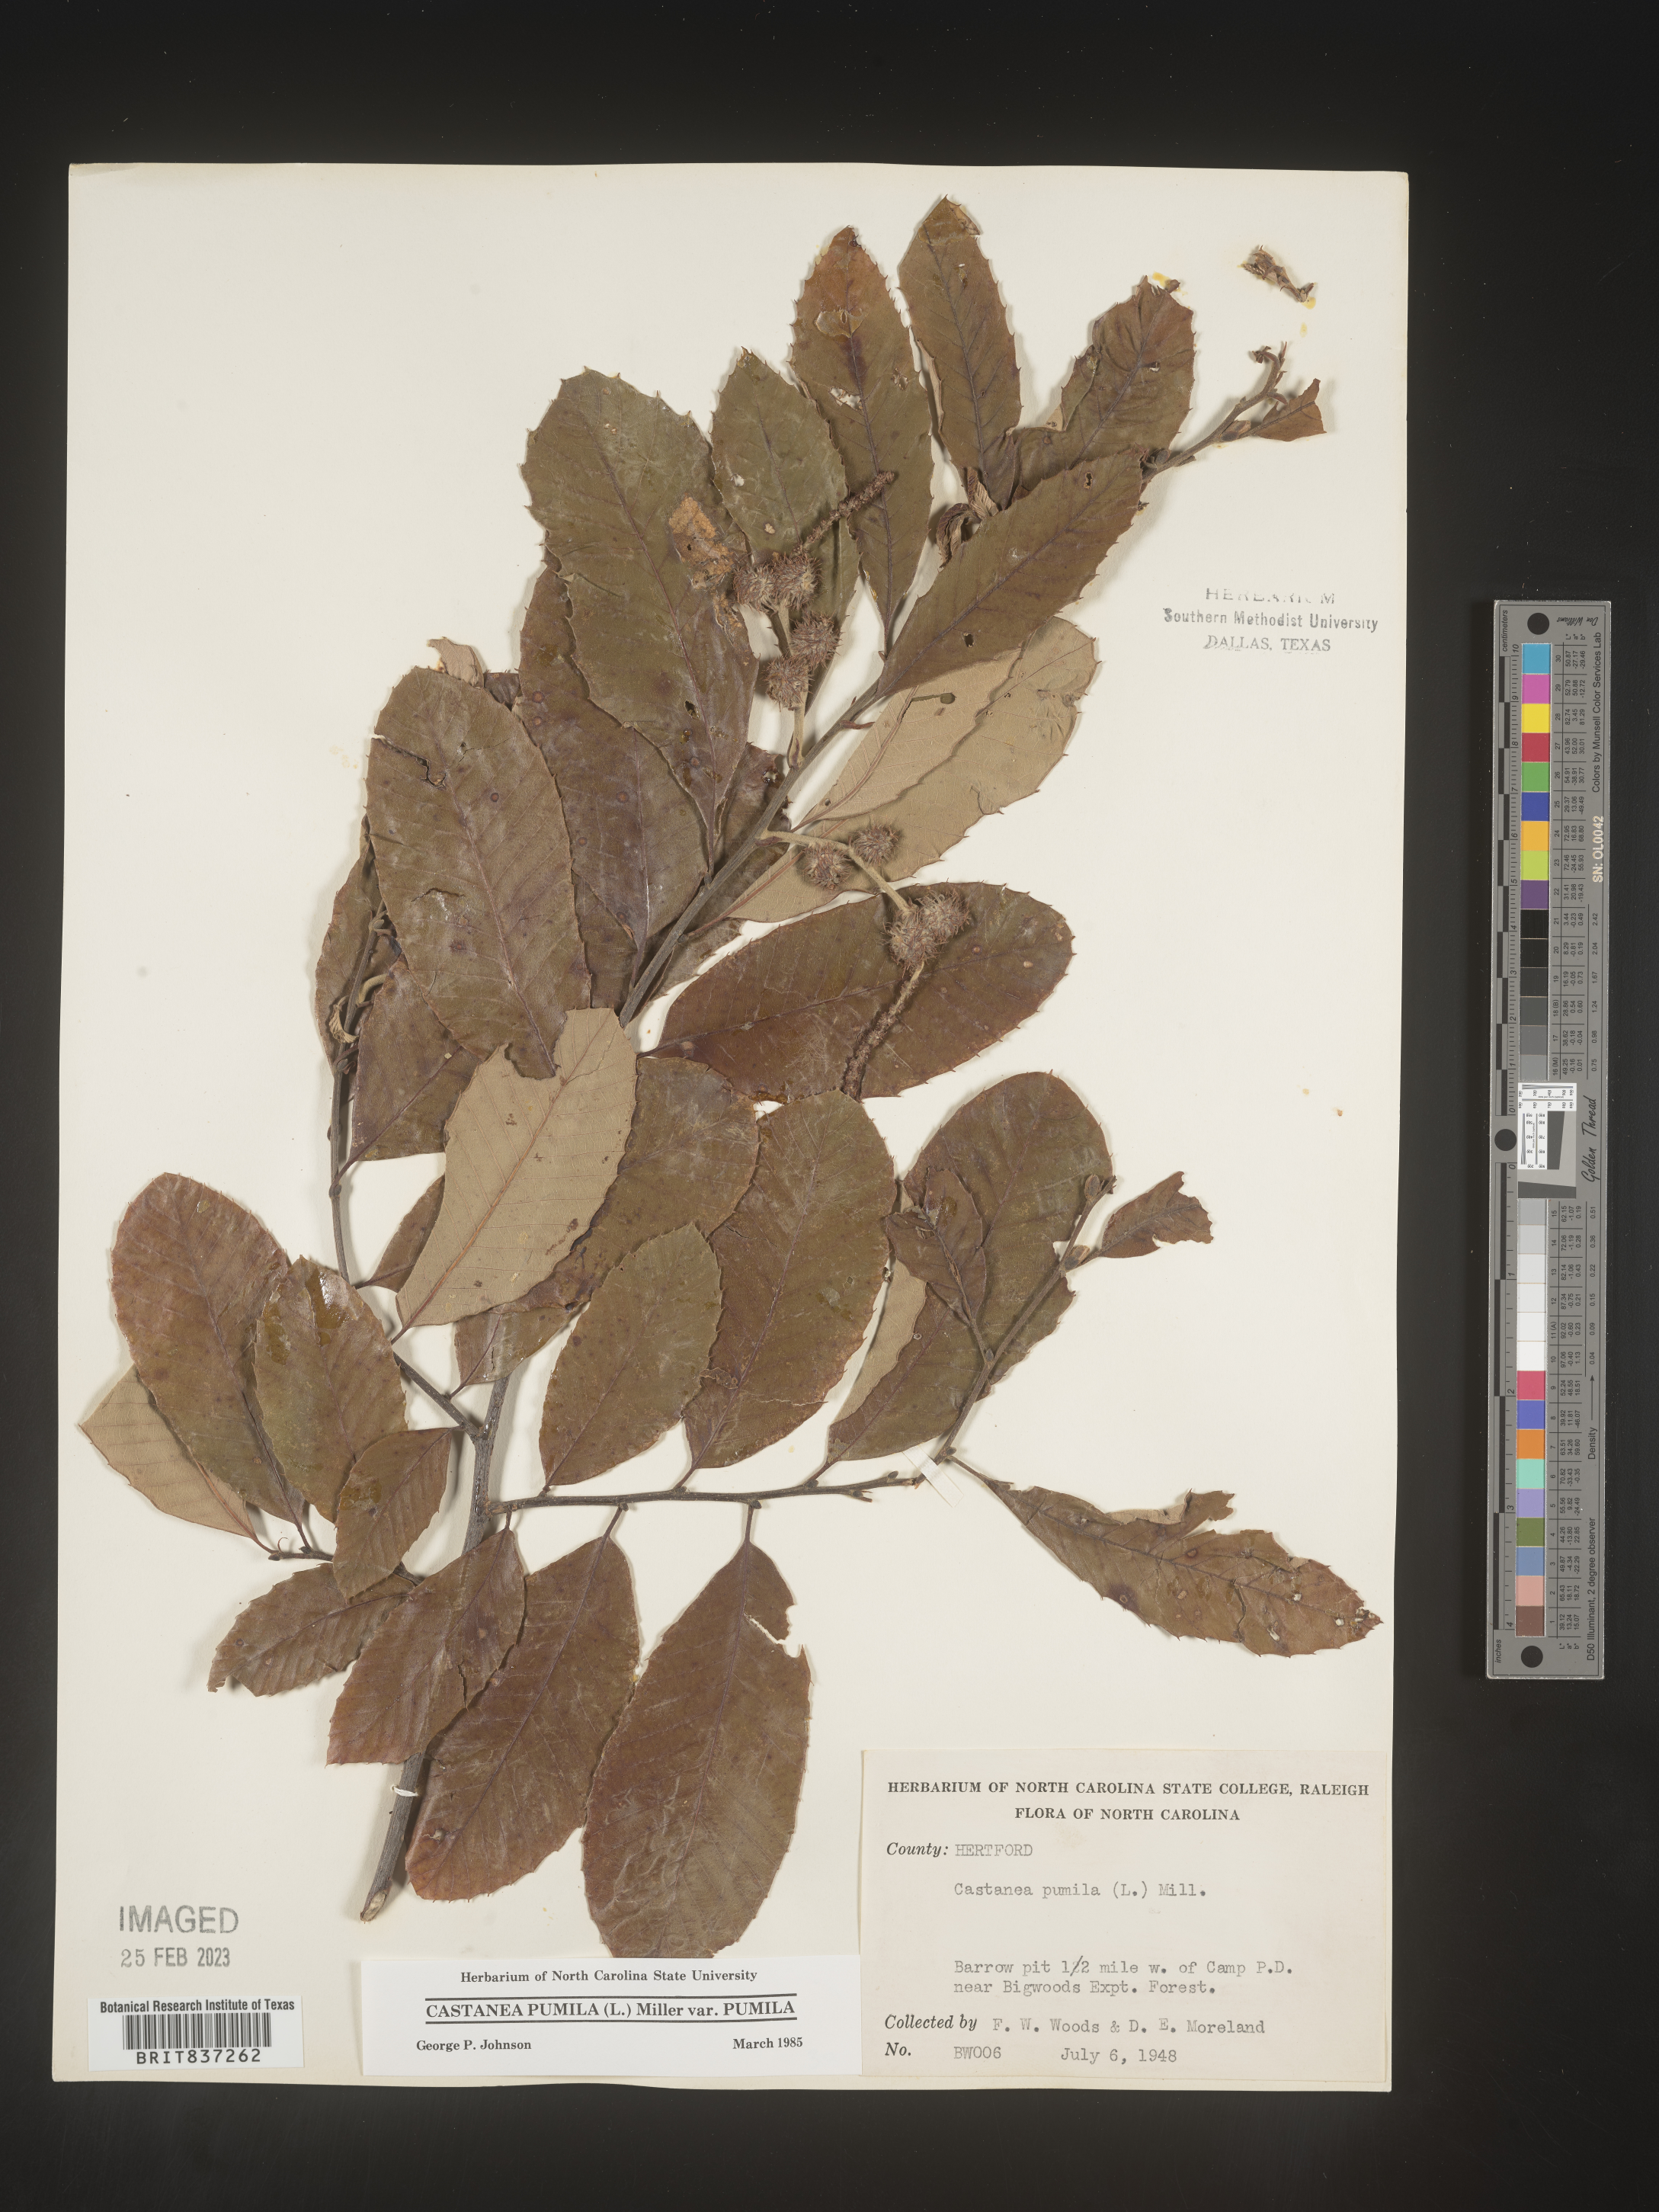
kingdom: Plantae
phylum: Tracheophyta
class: Magnoliopsida
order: Fagales
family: Fagaceae
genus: Castanea
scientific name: Castanea pumila
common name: Chinkapin
